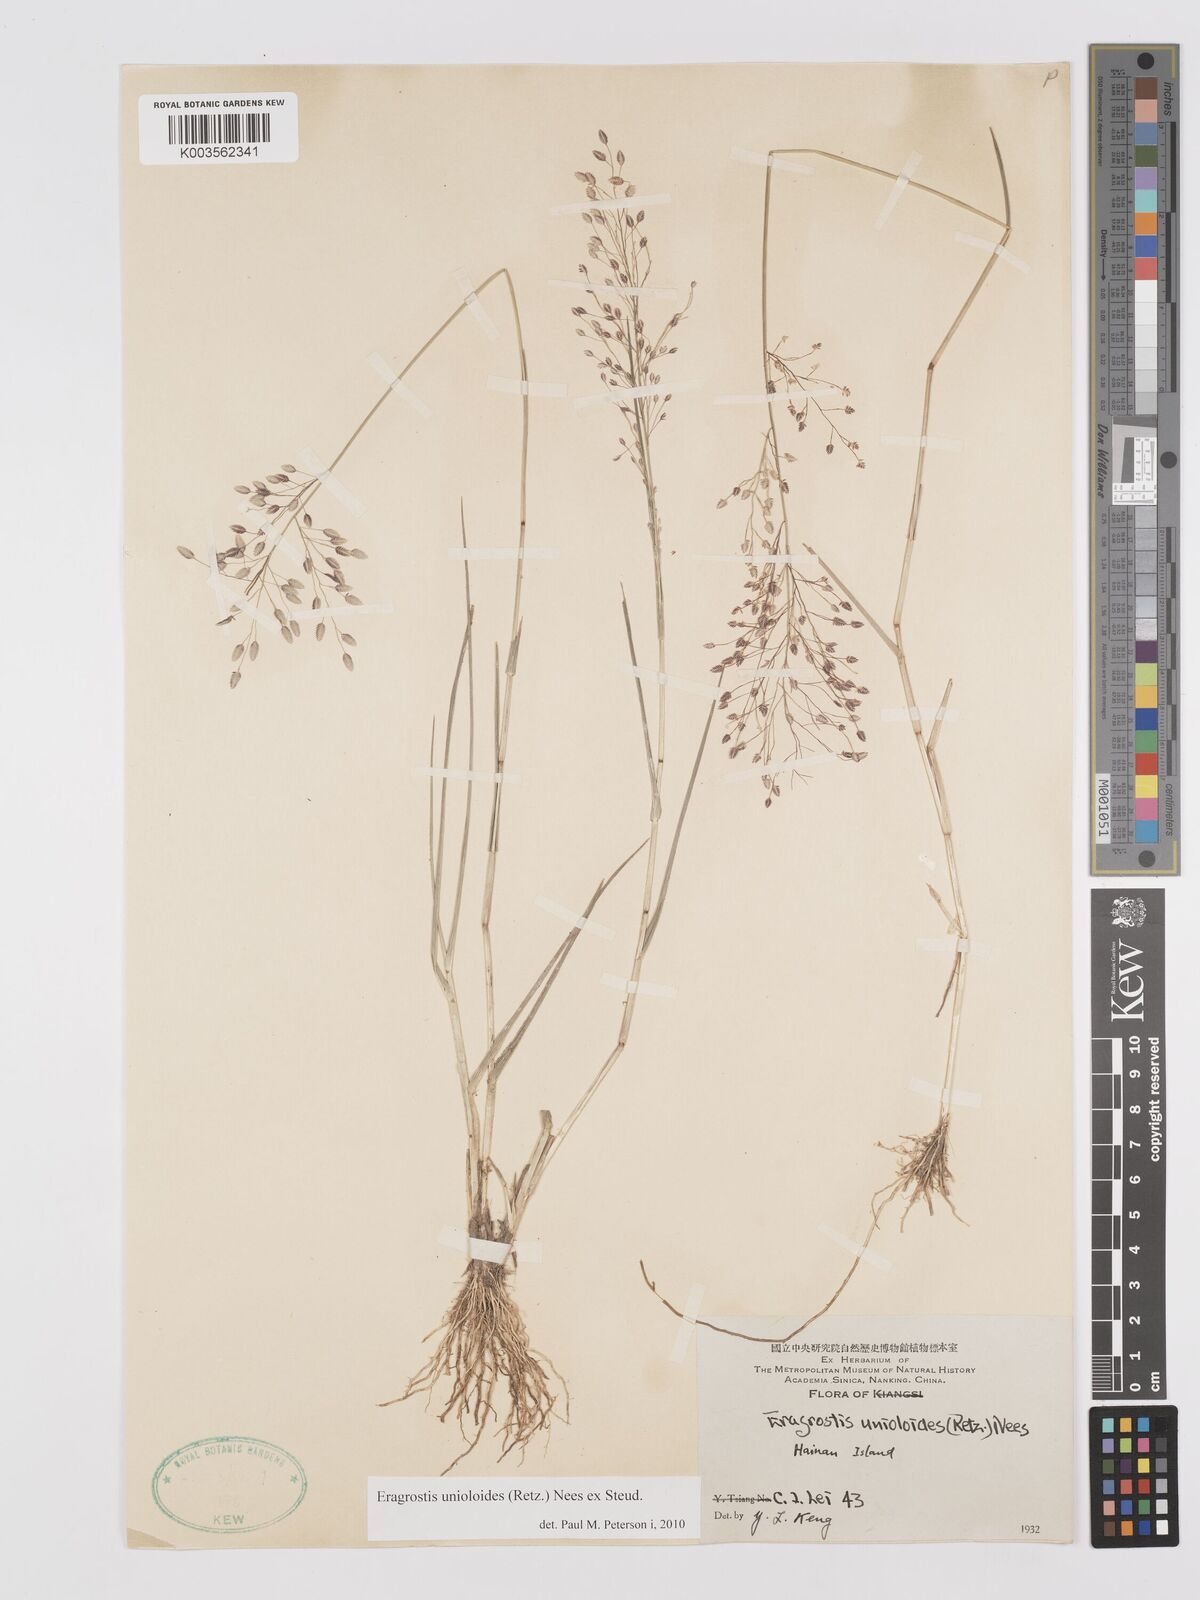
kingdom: Plantae
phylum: Tracheophyta
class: Liliopsida
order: Poales
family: Poaceae
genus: Eragrostis
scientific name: Eragrostis unioloides
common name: Chinese lovegrass
